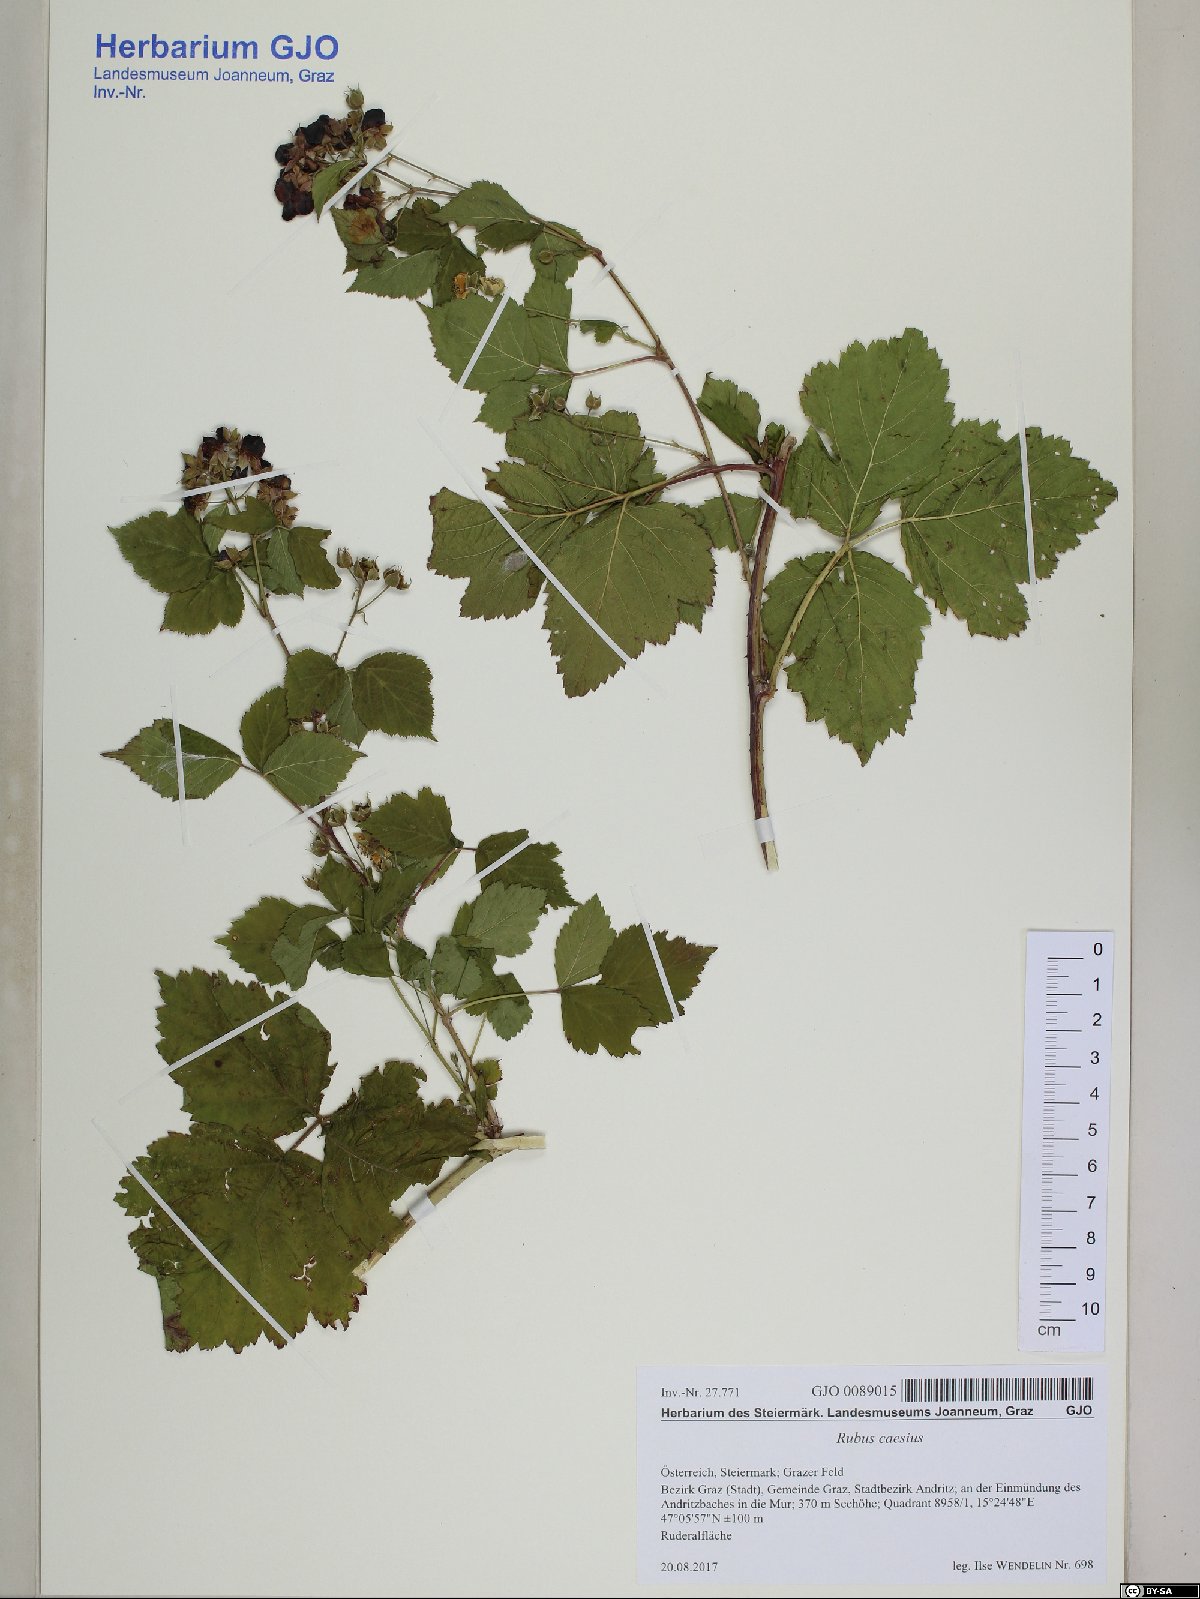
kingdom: Plantae
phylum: Tracheophyta
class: Magnoliopsida
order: Rosales
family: Rosaceae
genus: Rubus
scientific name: Rubus caesius
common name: Dewberry
